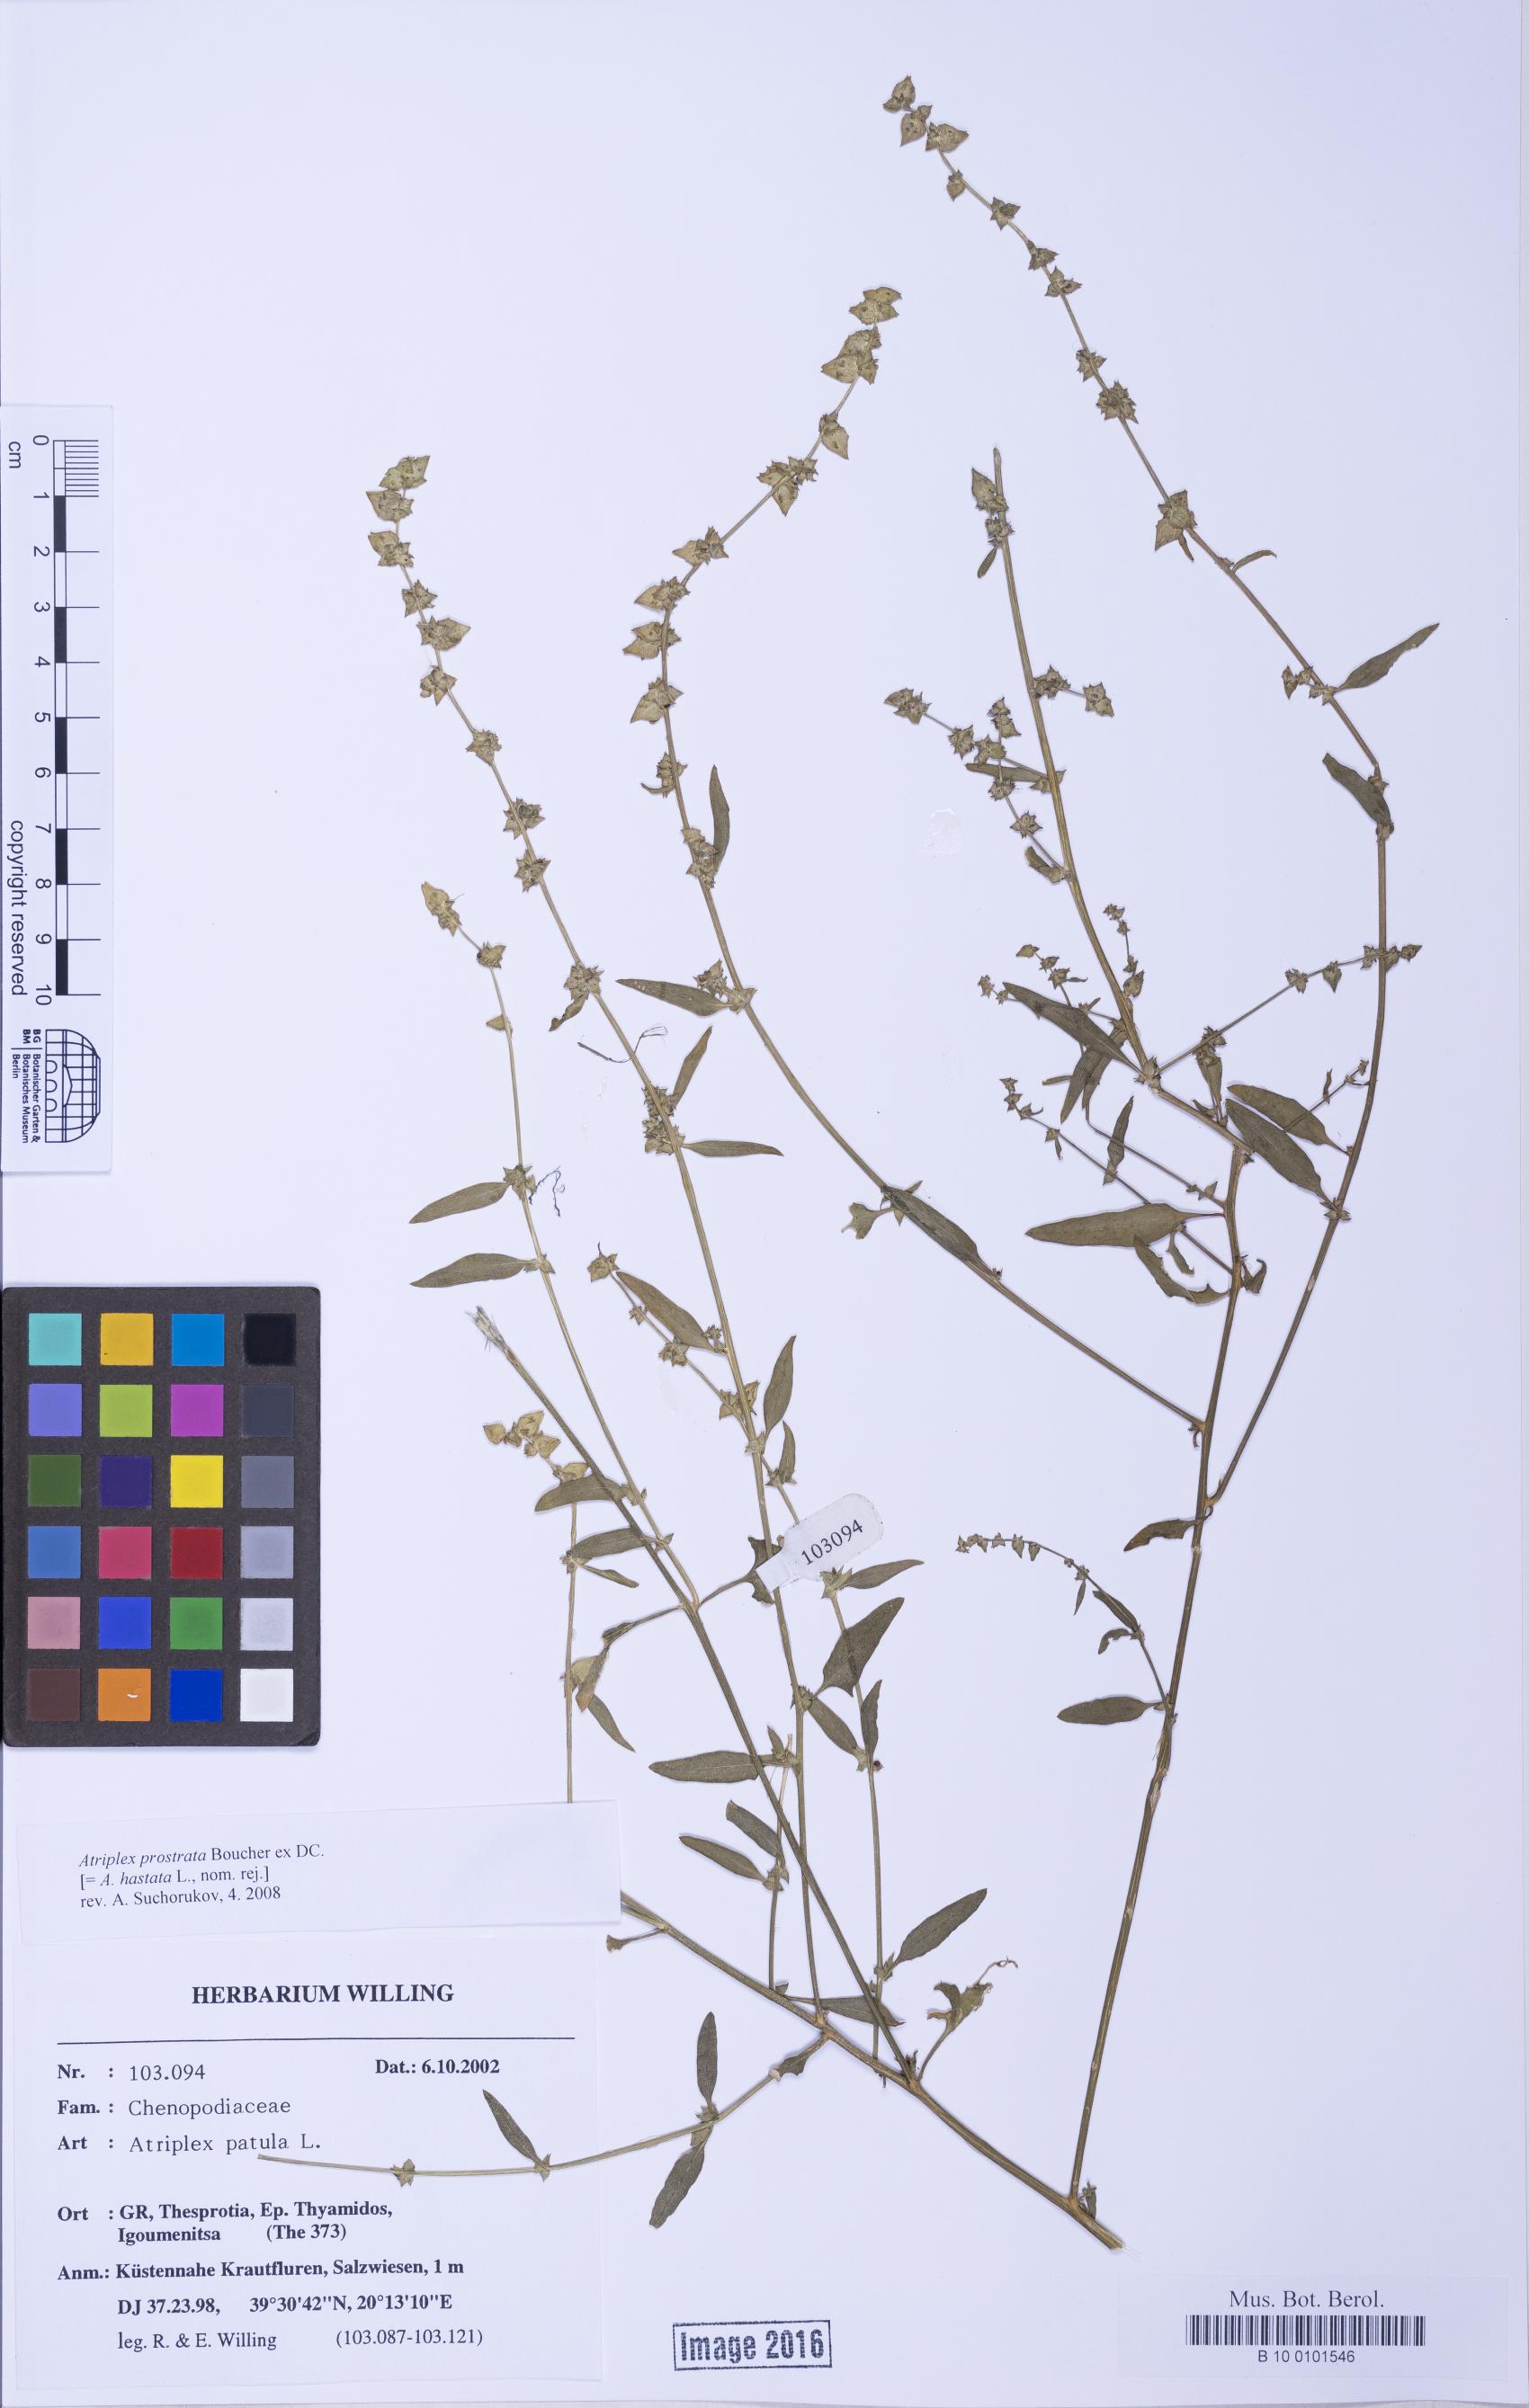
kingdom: Plantae
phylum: Tracheophyta
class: Magnoliopsida
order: Caryophyllales
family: Amaranthaceae
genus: Atriplex
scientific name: Atriplex prostrata
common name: Spear-leaved orache
